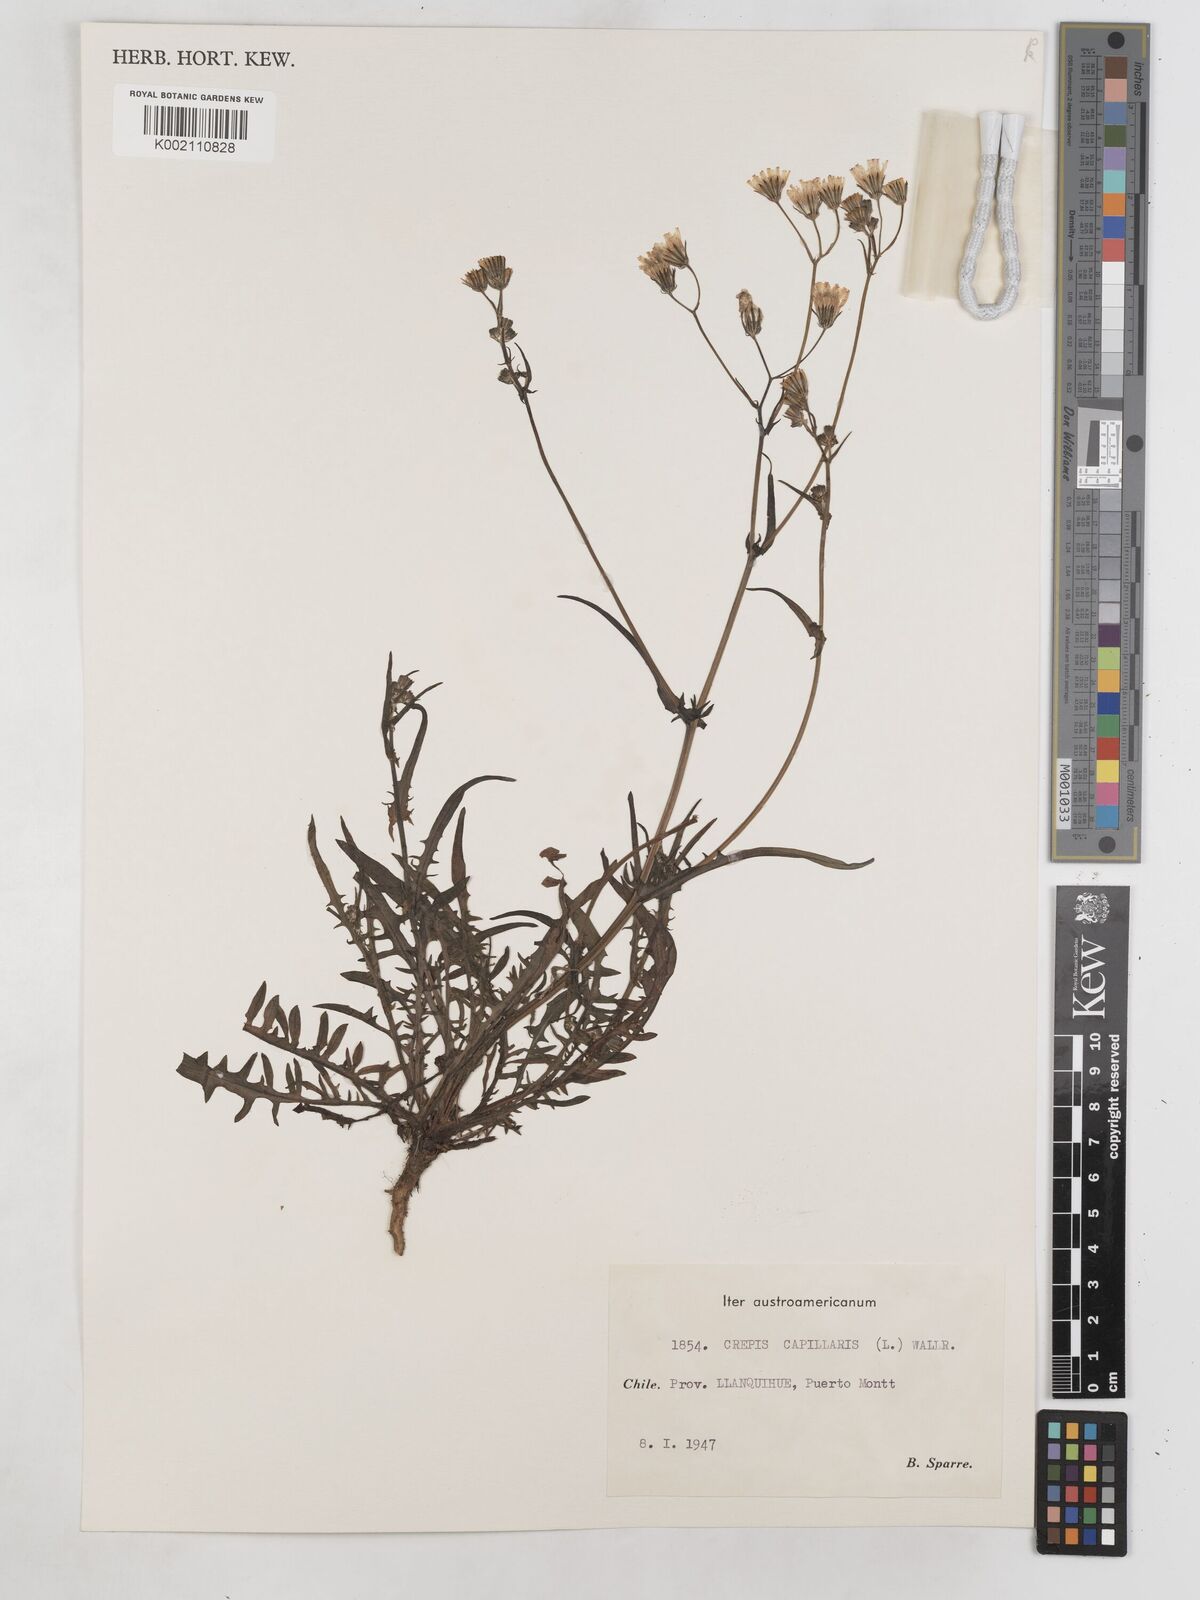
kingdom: Plantae
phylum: Tracheophyta
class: Magnoliopsida
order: Asterales
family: Asteraceae
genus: Crepis
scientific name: Crepis capillaris
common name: Smooth hawksbeard
